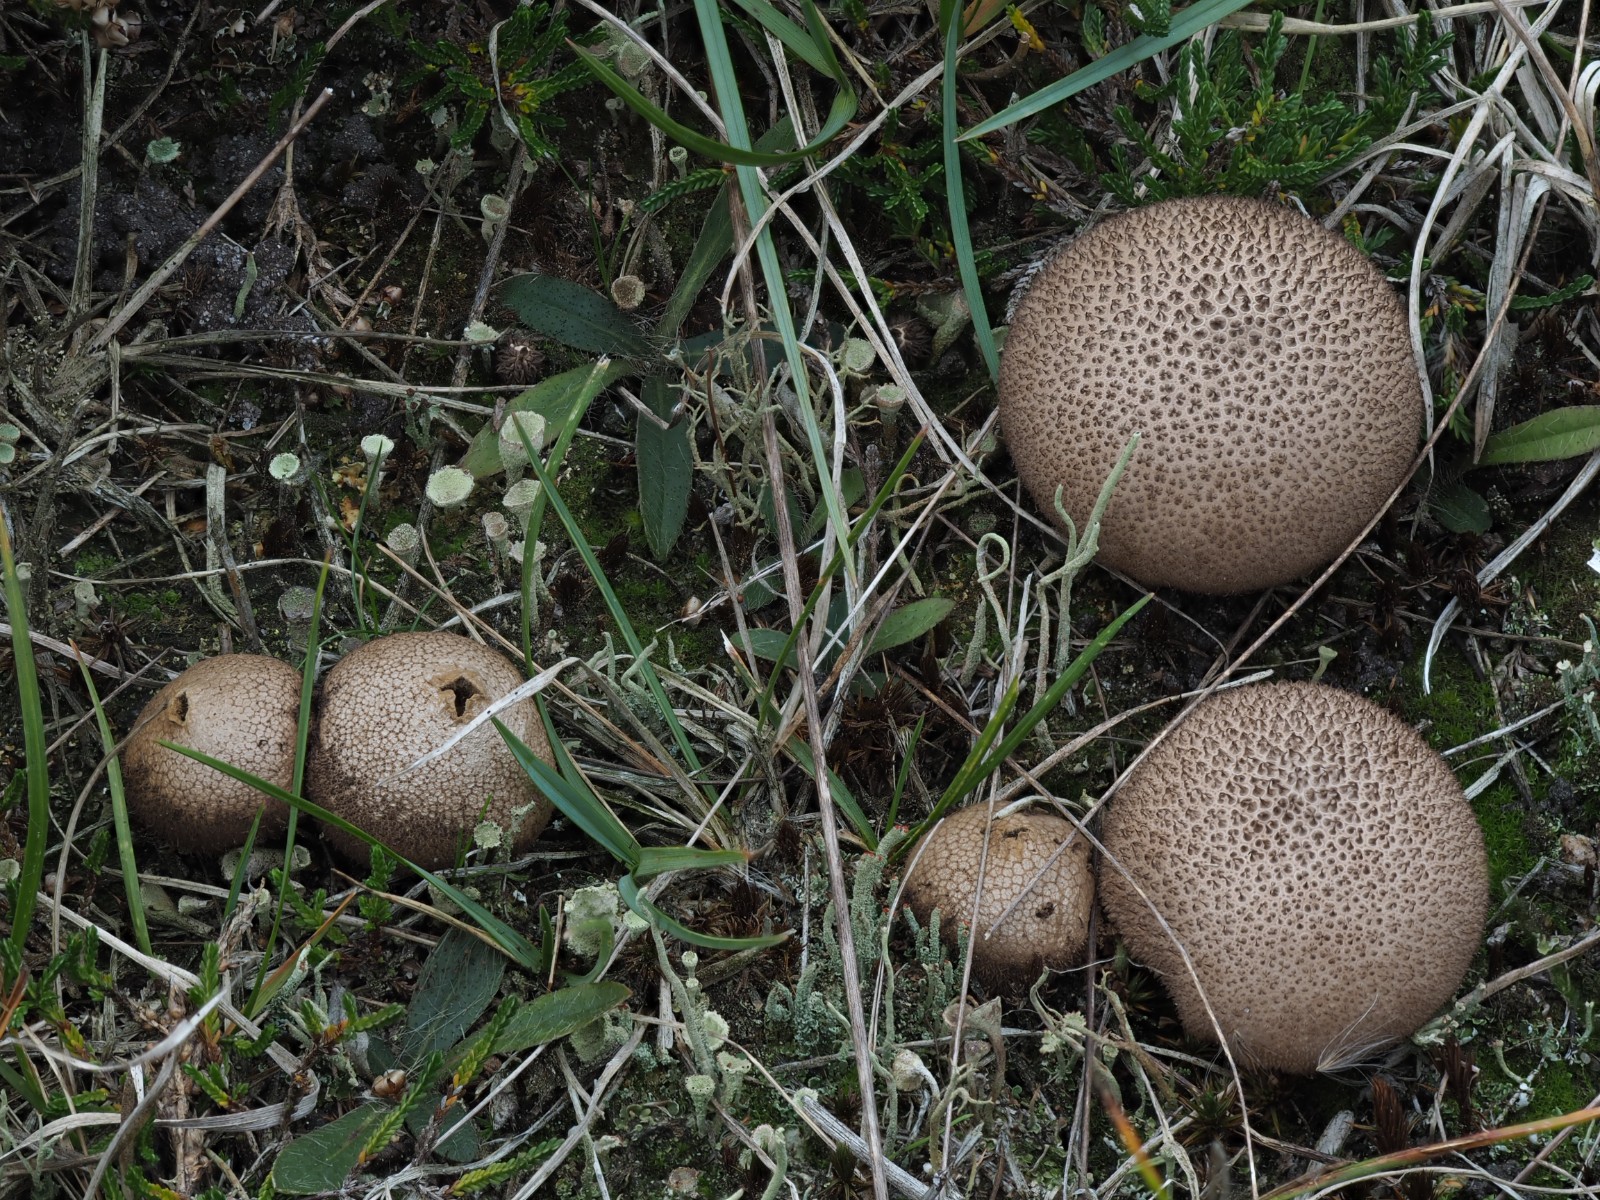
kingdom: Fungi
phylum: Basidiomycota
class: Agaricomycetes
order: Agaricales
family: Lycoperdaceae
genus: Lycoperdon
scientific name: Lycoperdon nigrescens
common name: sortagtig støvbold
